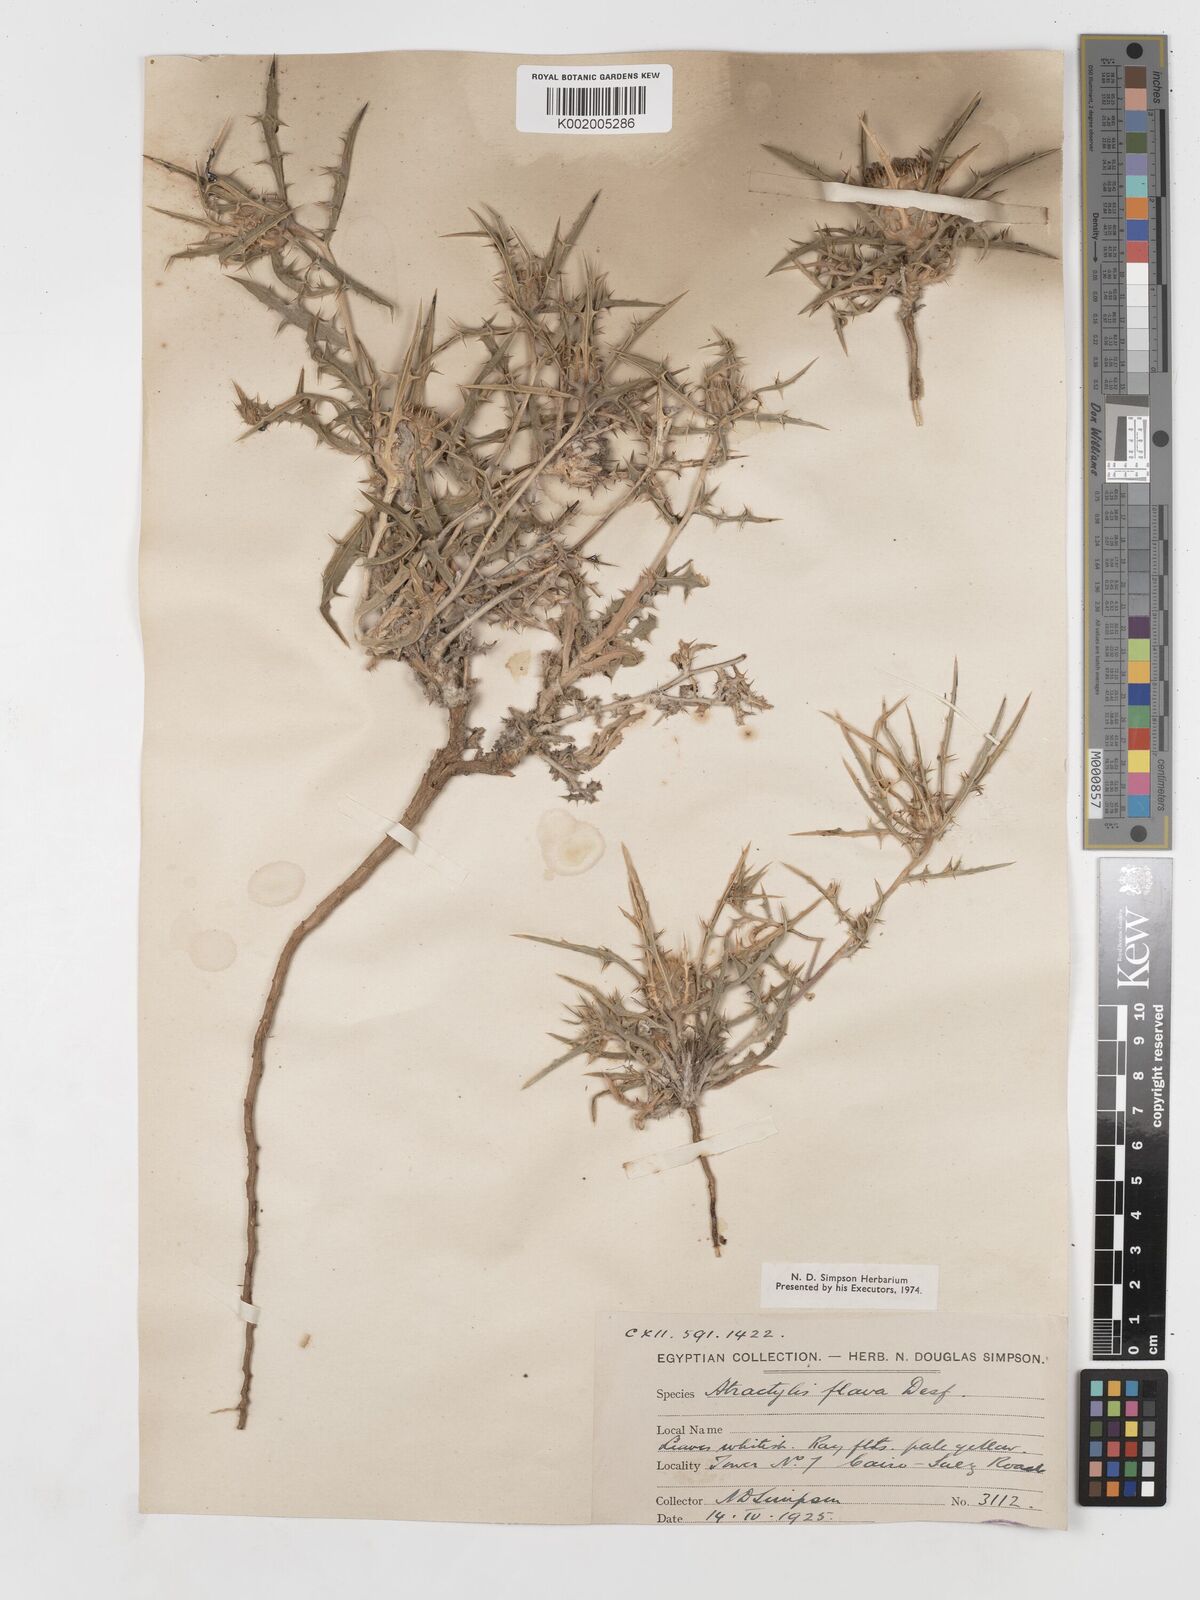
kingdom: Plantae
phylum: Tracheophyta
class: Magnoliopsida
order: Asterales
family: Asteraceae
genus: Atractylis
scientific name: Atractylis carduus
